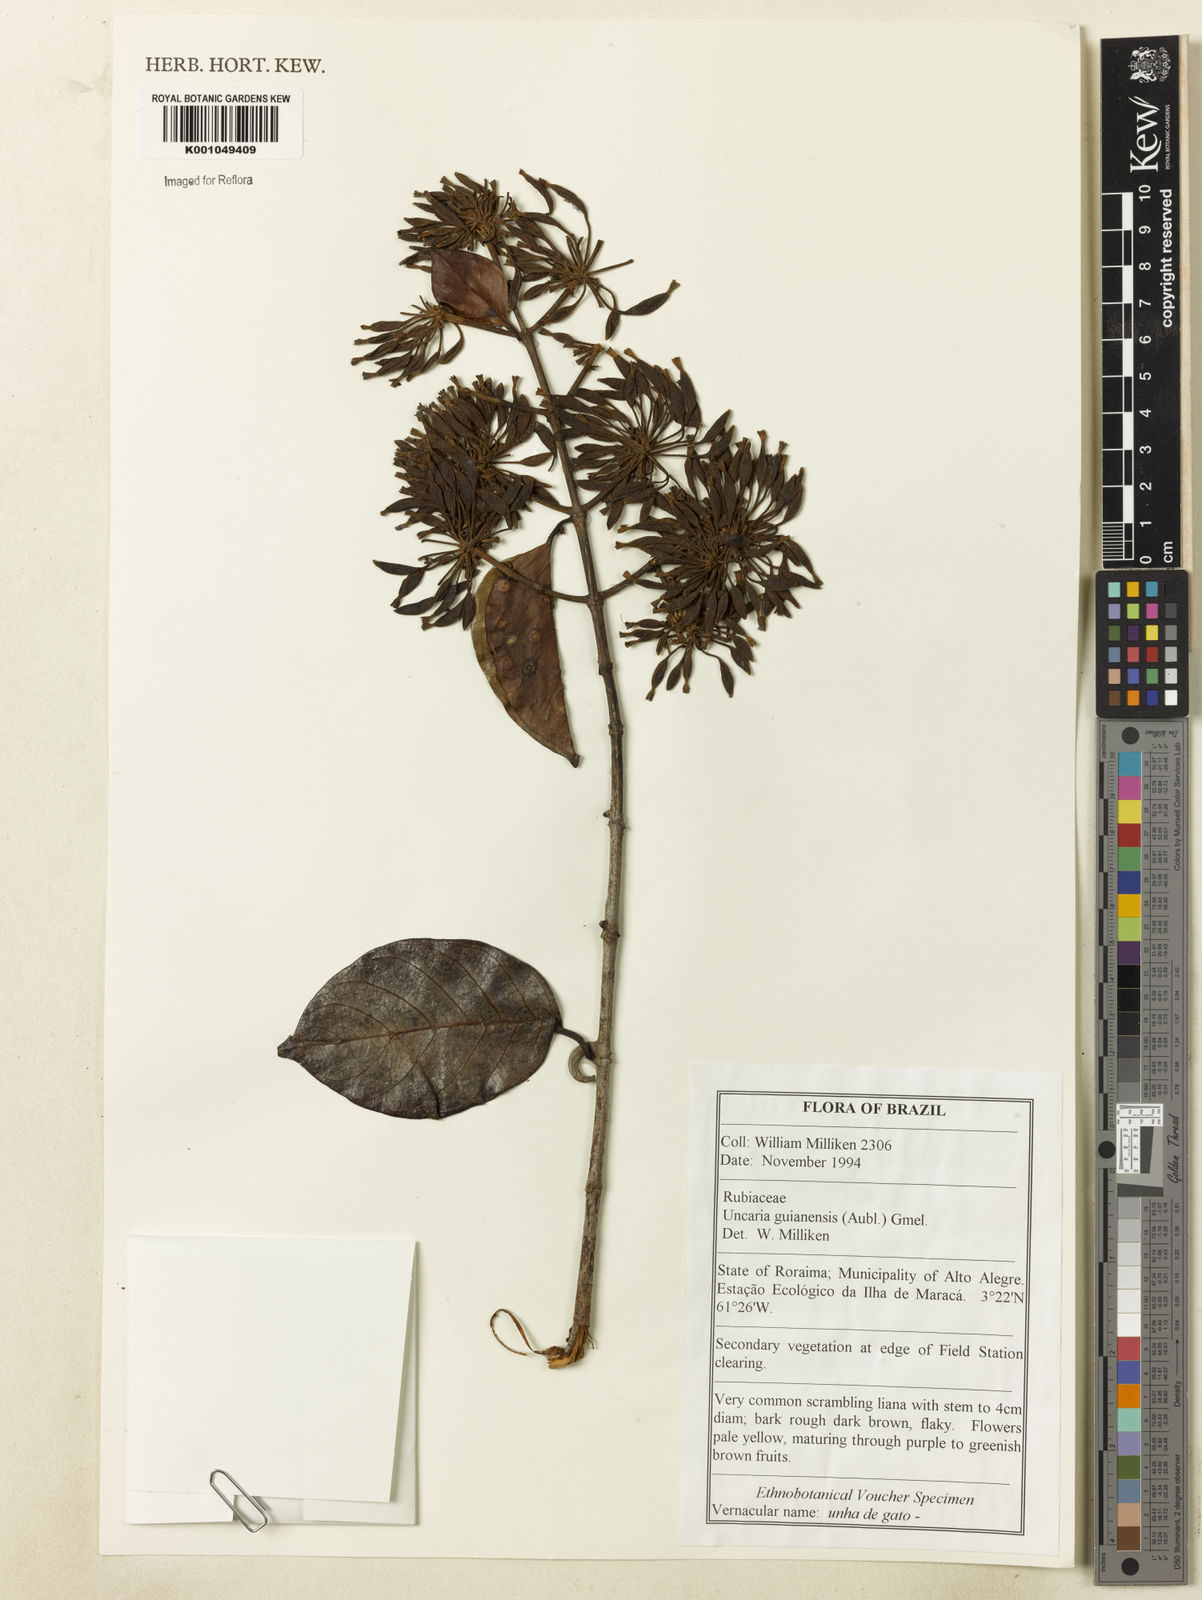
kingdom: Plantae
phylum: Tracheophyta
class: Magnoliopsida
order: Gentianales
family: Rubiaceae
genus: Uncaria
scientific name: Uncaria guianensis
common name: Cat's-claw
